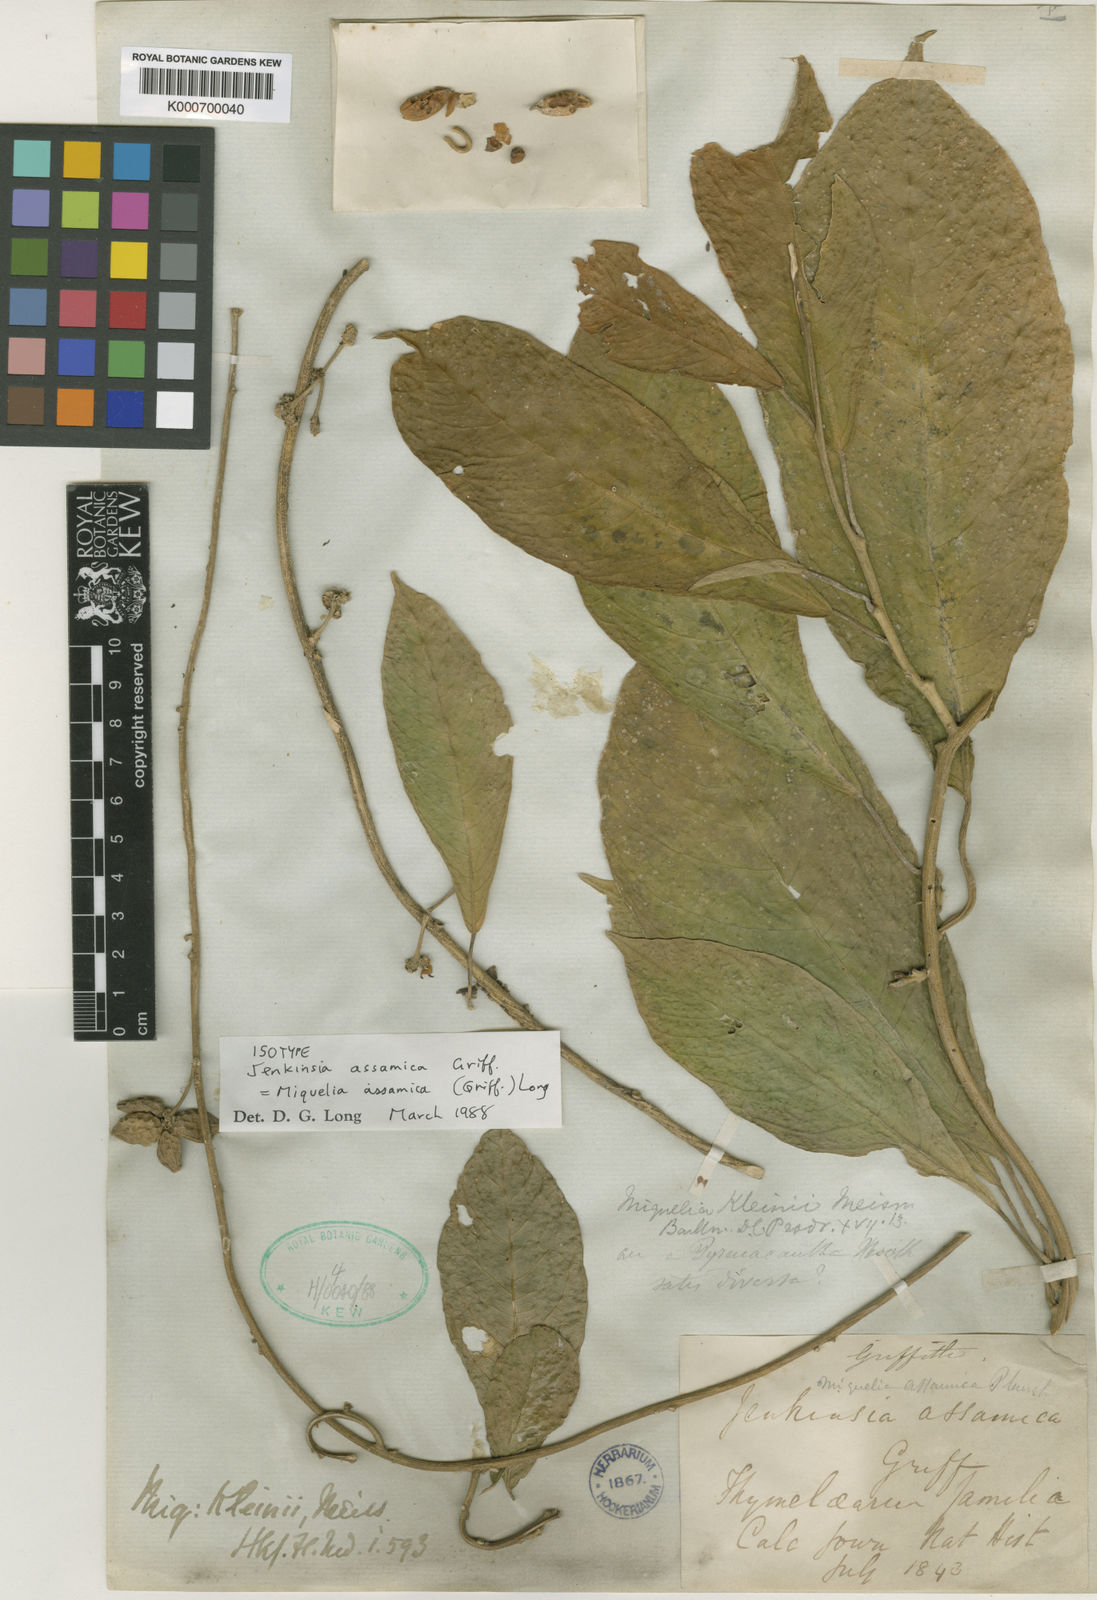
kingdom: Plantae
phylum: Tracheophyta
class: Magnoliopsida
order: Icacinales
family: Icacinaceae
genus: Miquelia
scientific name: Miquelia
